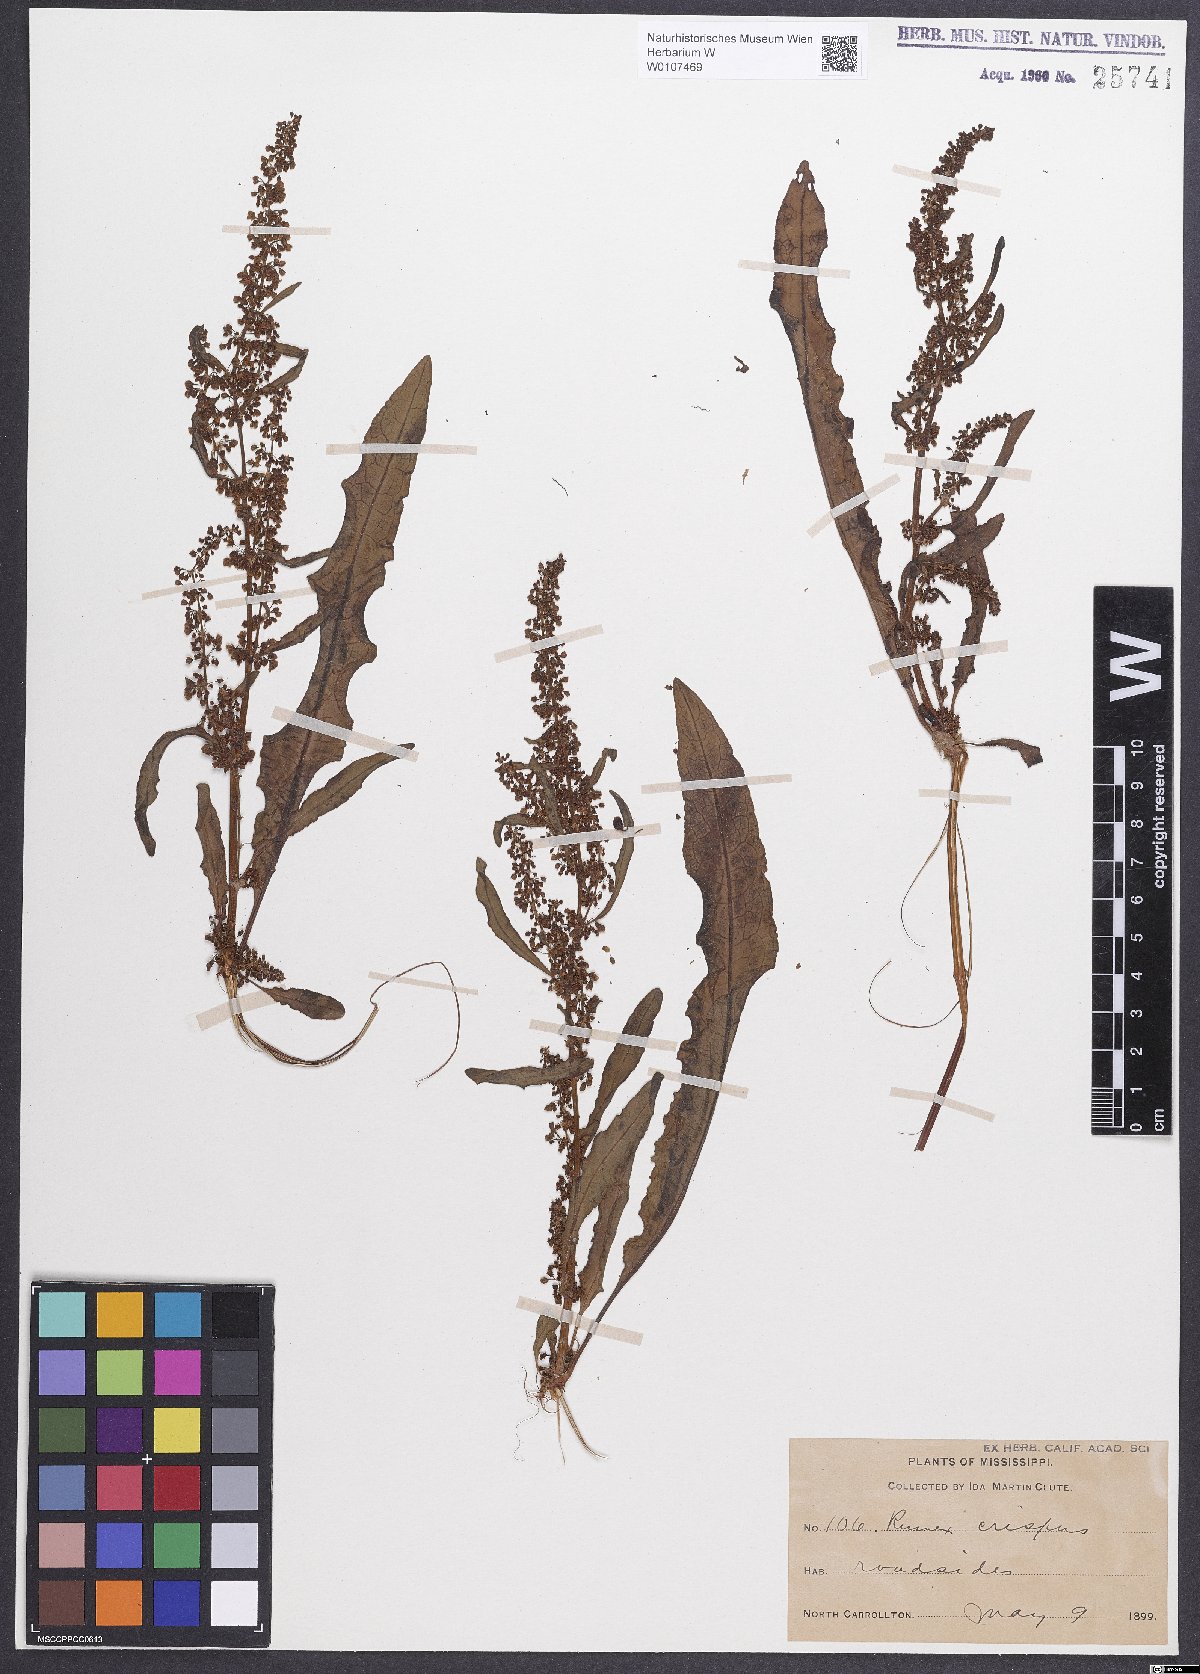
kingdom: Plantae
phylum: Tracheophyta
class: Magnoliopsida
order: Caryophyllales
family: Polygonaceae
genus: Rumex
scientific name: Rumex crispus
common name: Curled dock
